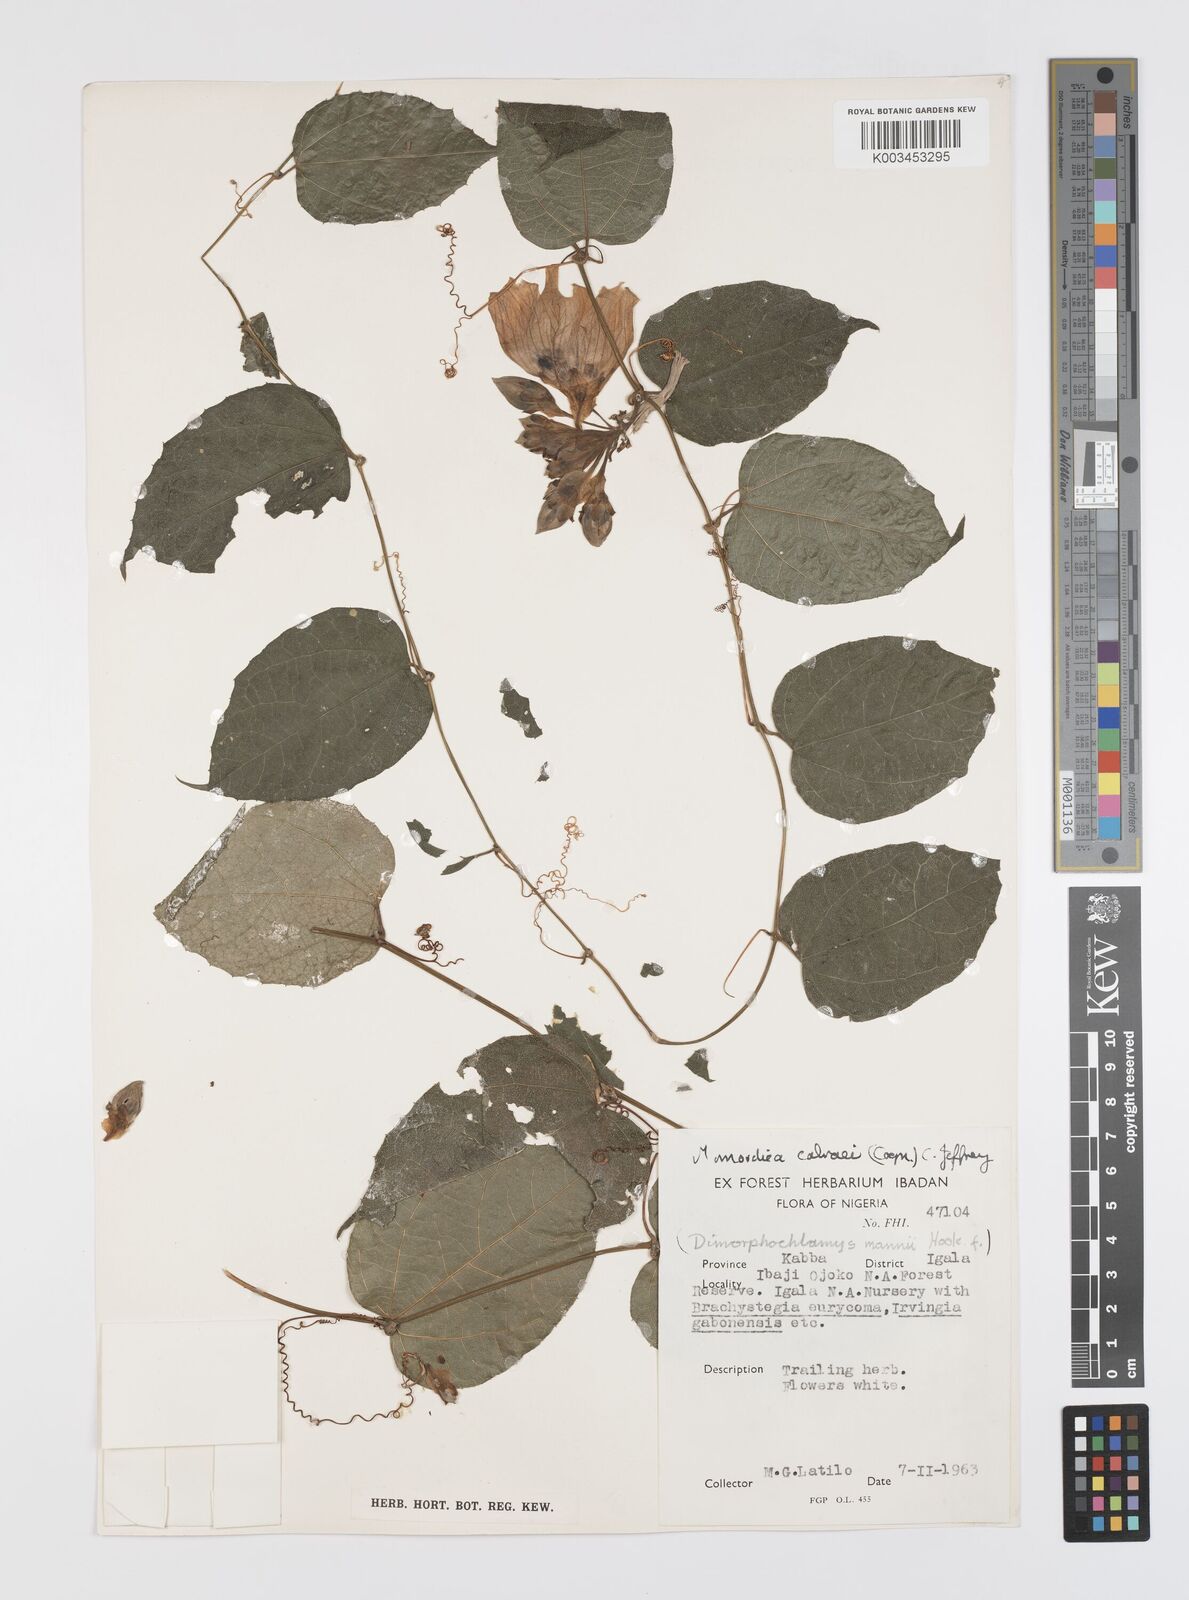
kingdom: Plantae
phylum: Tracheophyta
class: Magnoliopsida
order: Cucurbitales
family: Cucurbitaceae
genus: Momordica
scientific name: Momordica cabrae
